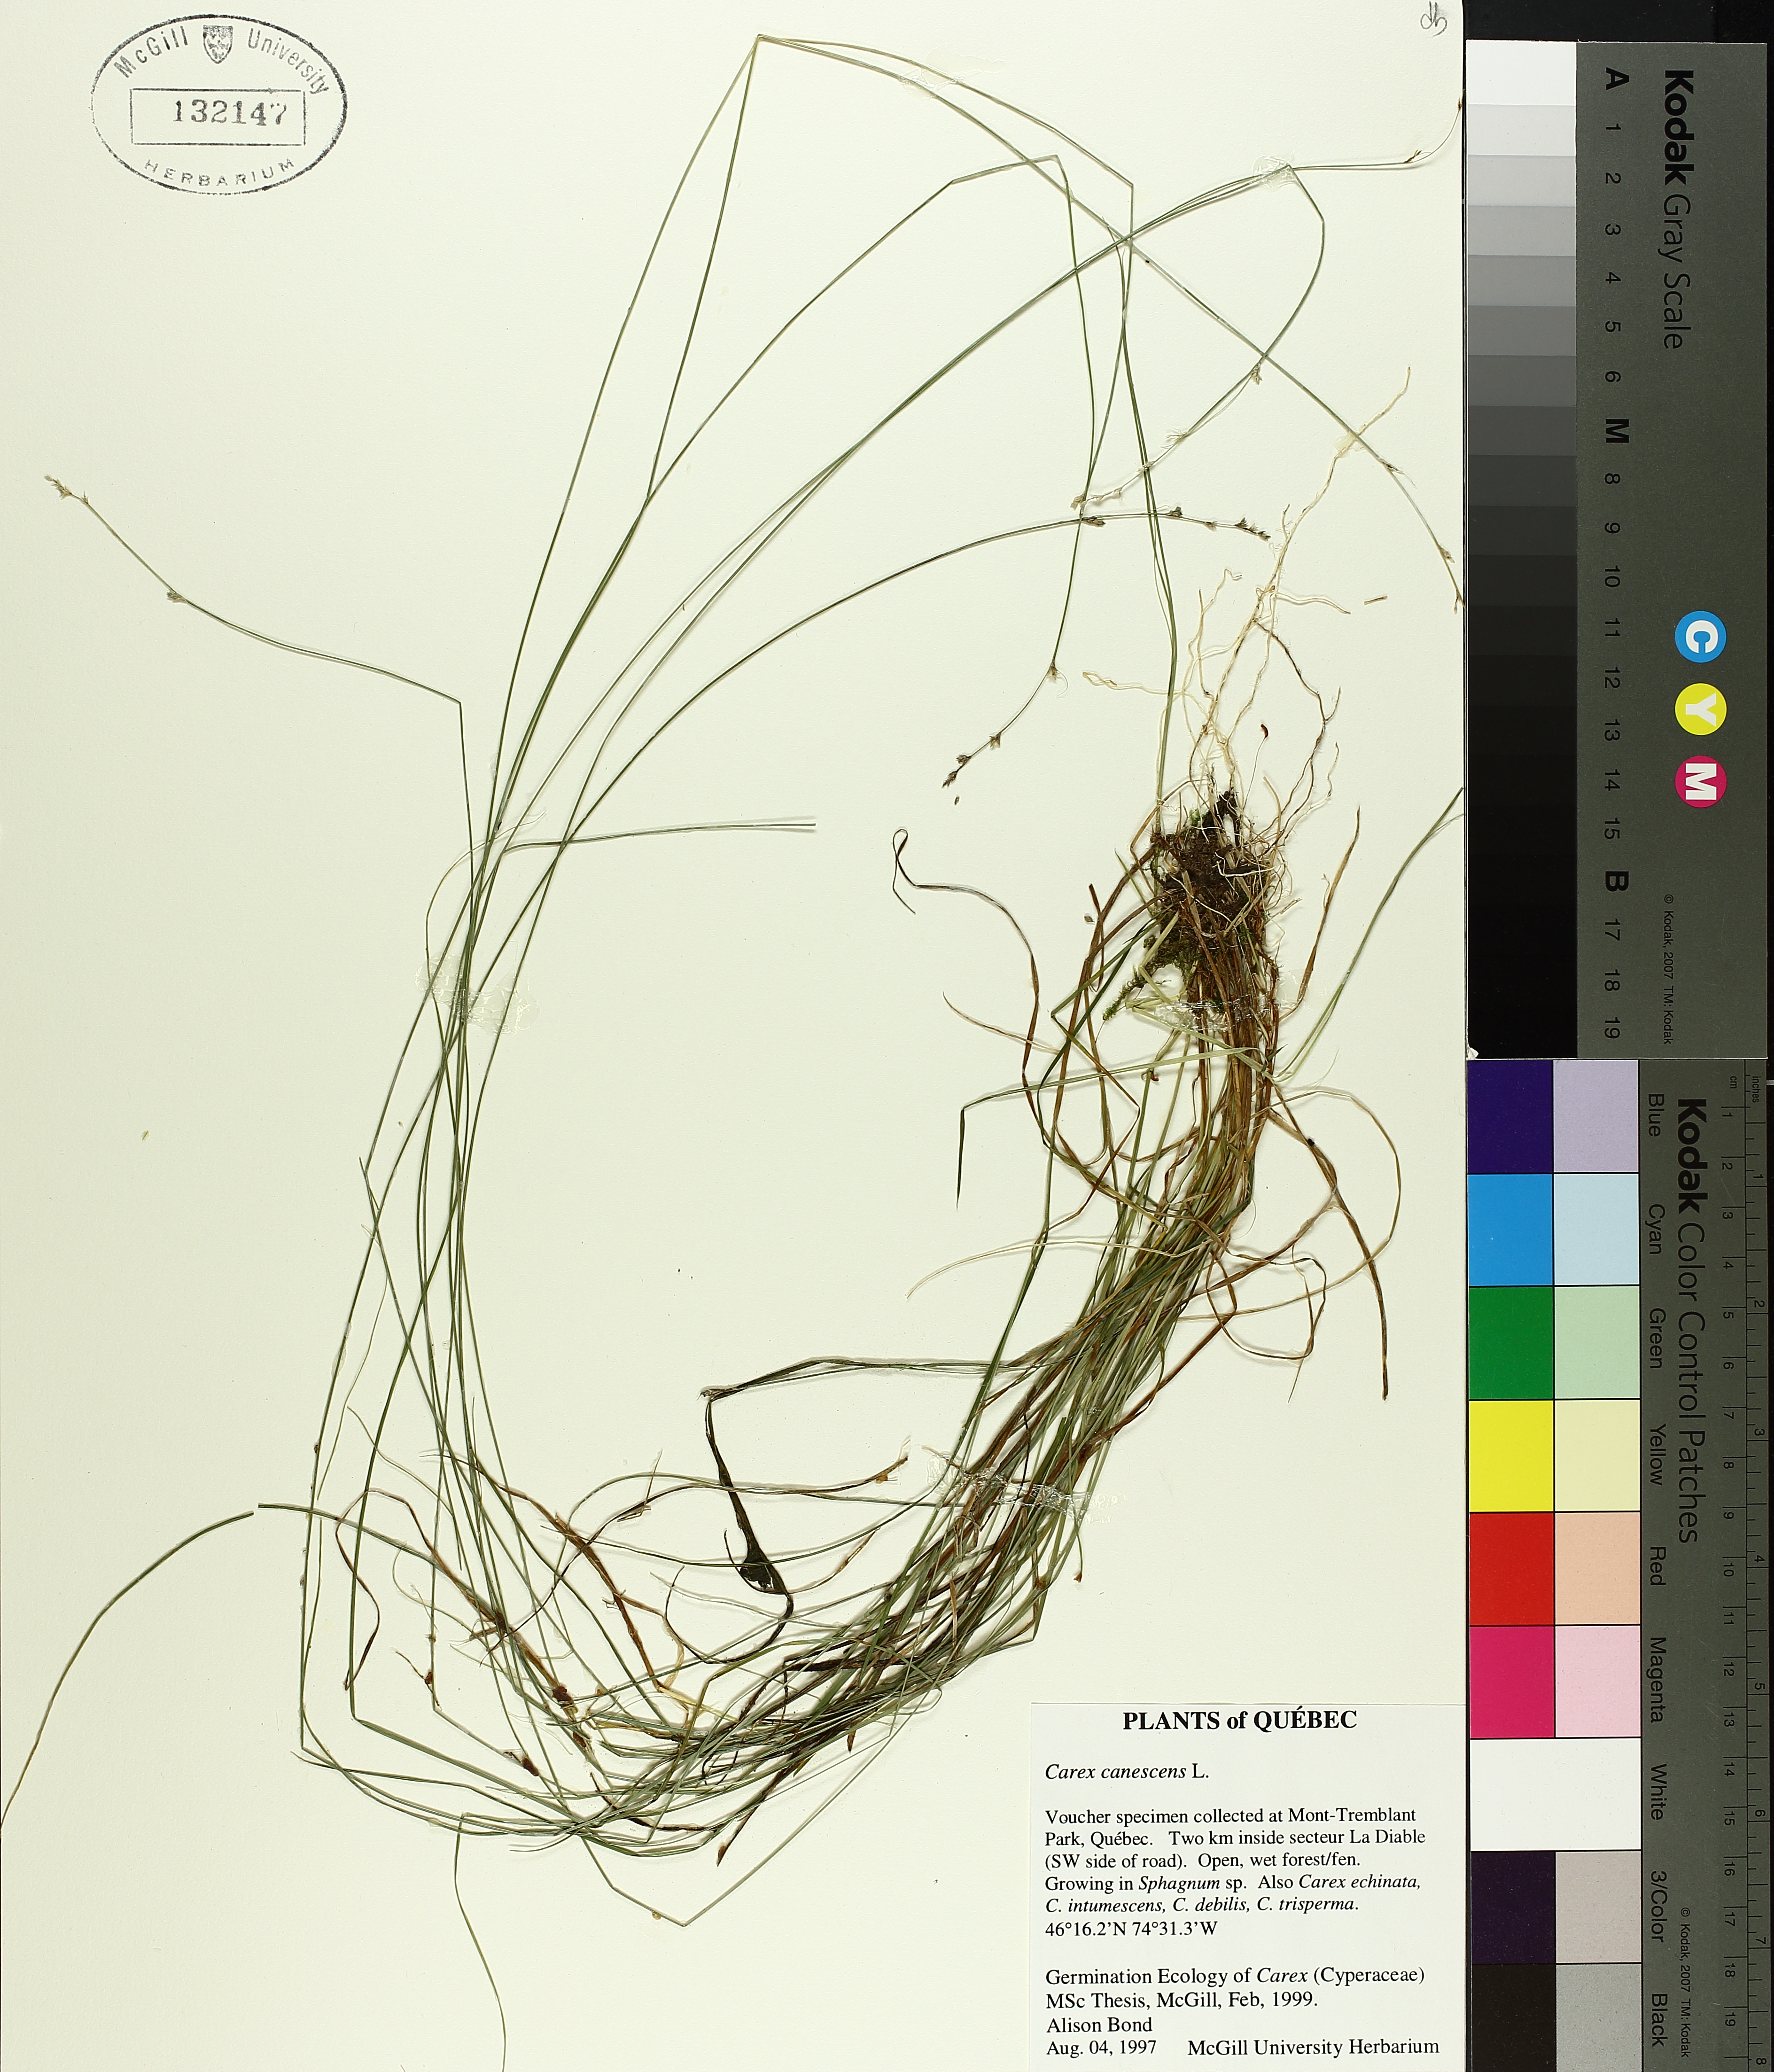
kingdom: Plantae
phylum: Tracheophyta
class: Liliopsida
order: Poales
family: Cyperaceae
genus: Carex
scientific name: Carex canescens
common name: White sedge
